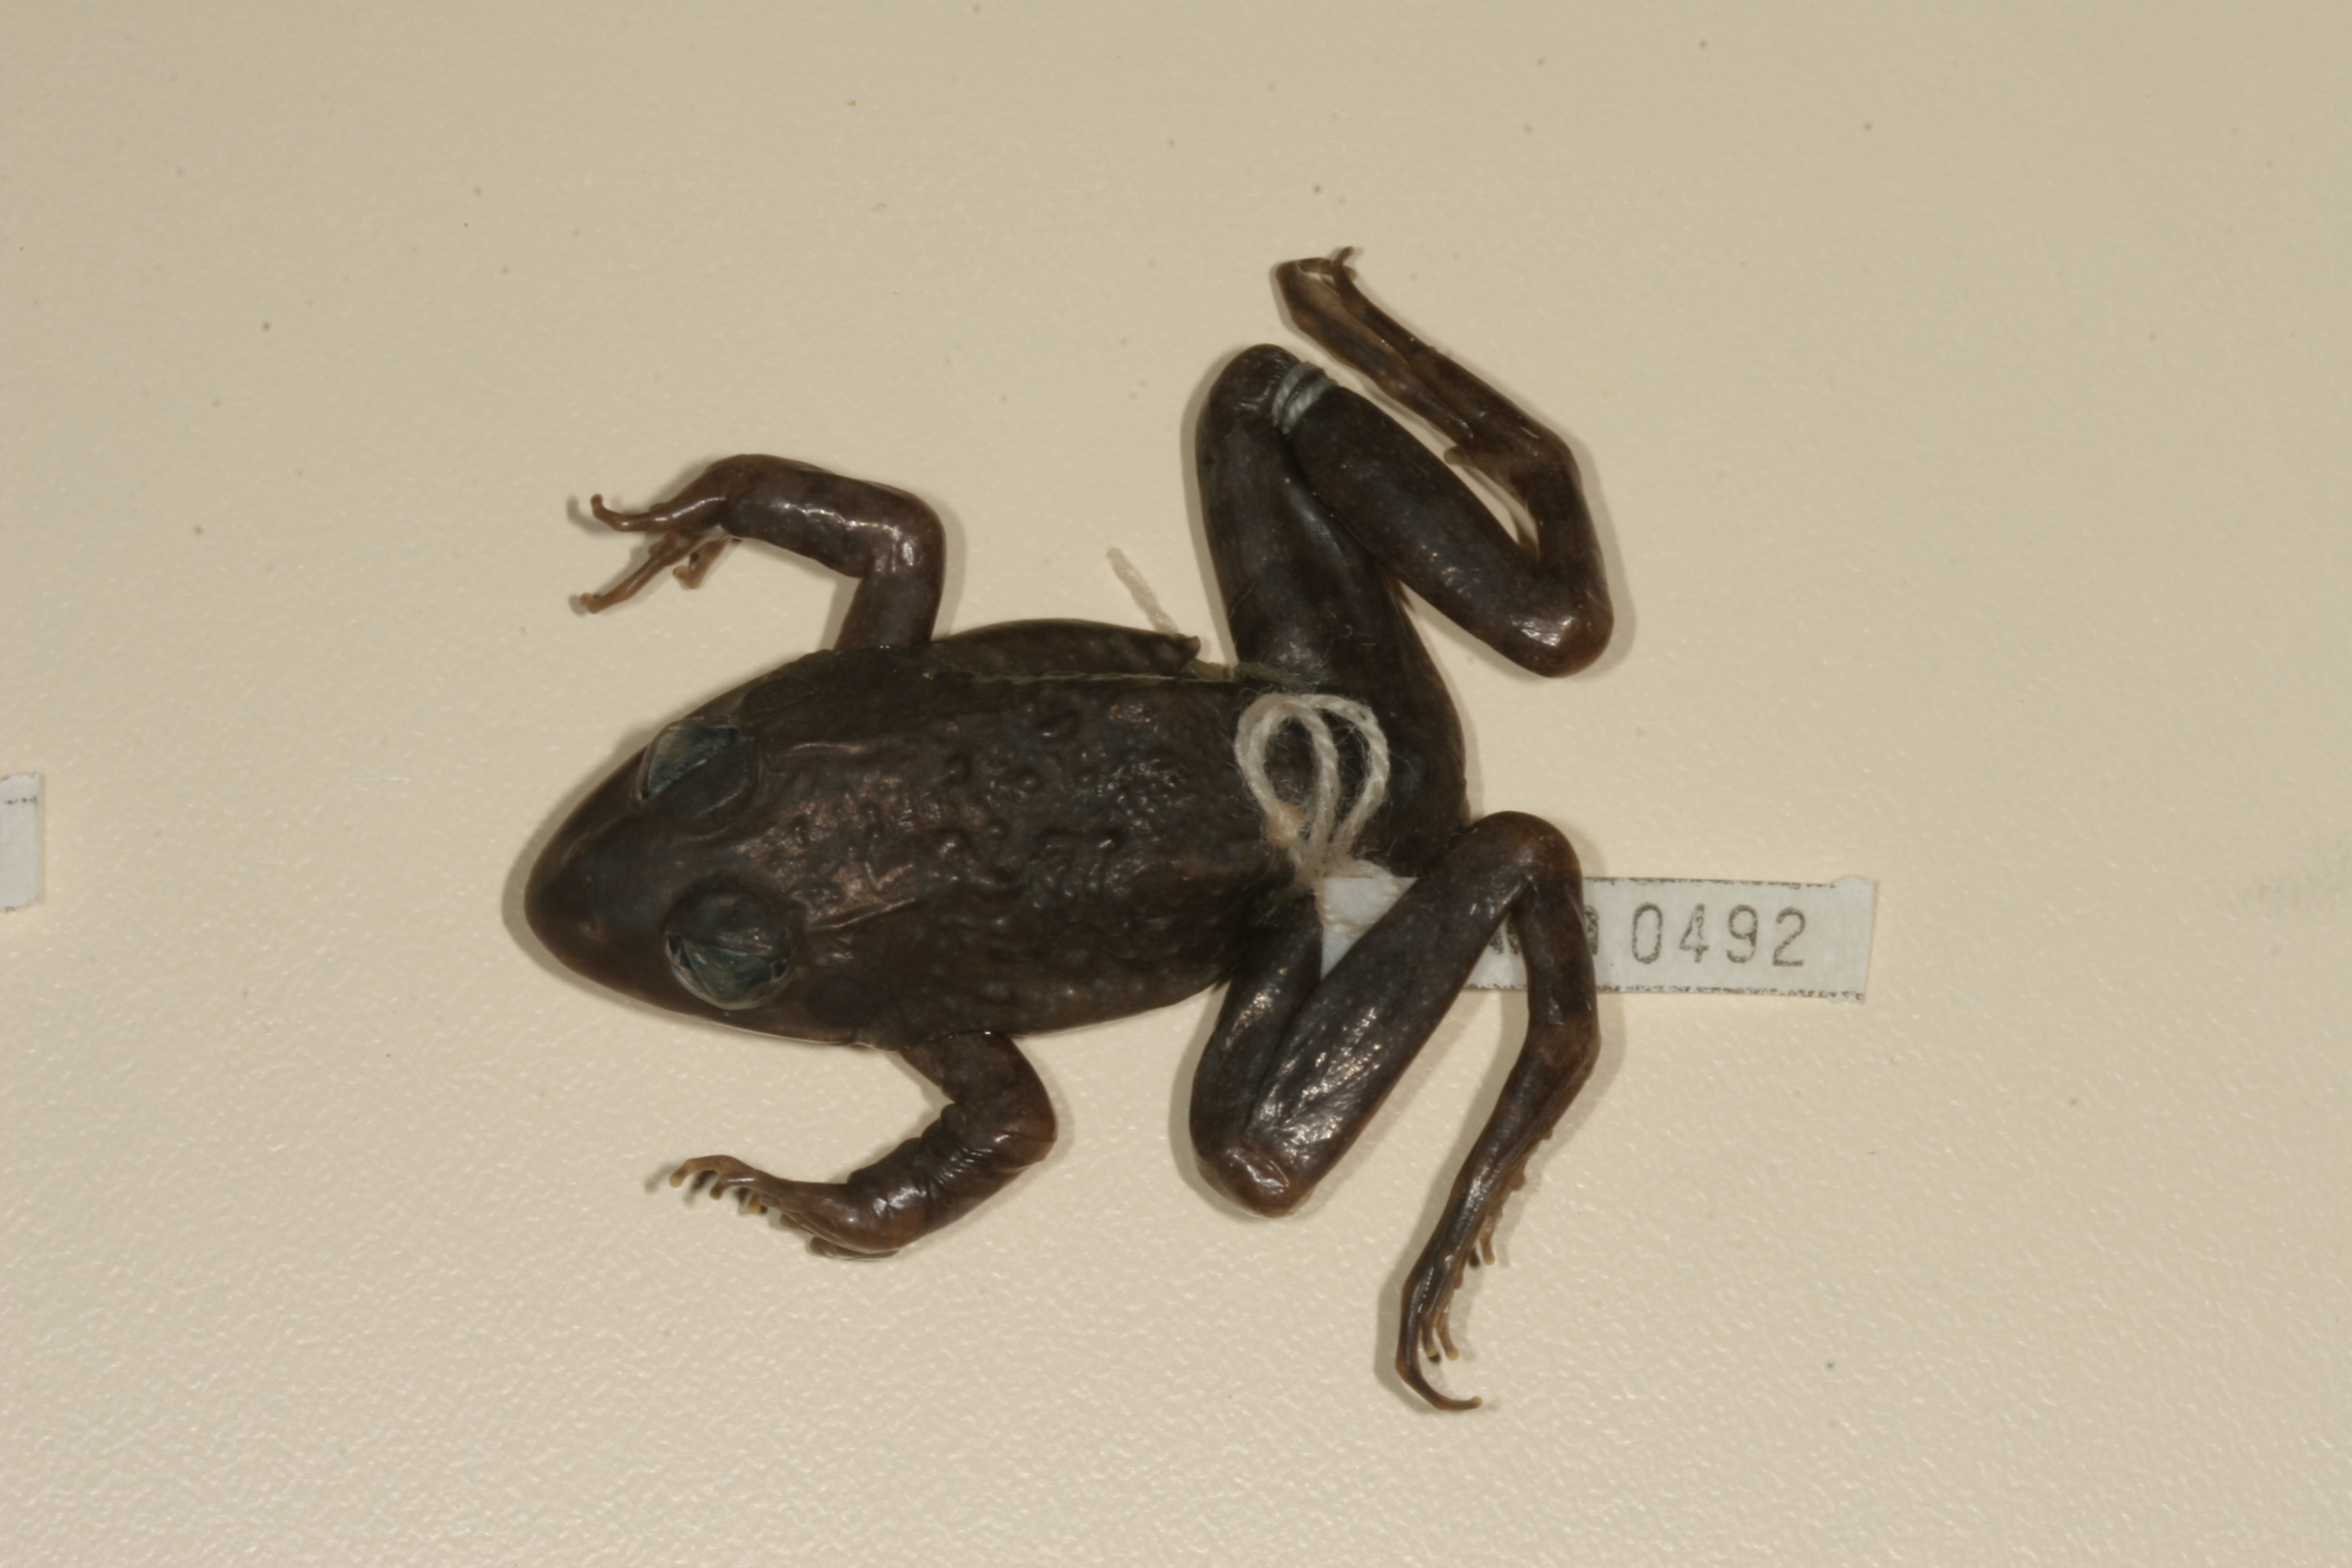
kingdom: Animalia
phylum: Chordata
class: Amphibia
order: Anura
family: Pyxicephalidae
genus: Microbatrachella
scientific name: Microbatrachella capensis
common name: Cape flats frog
